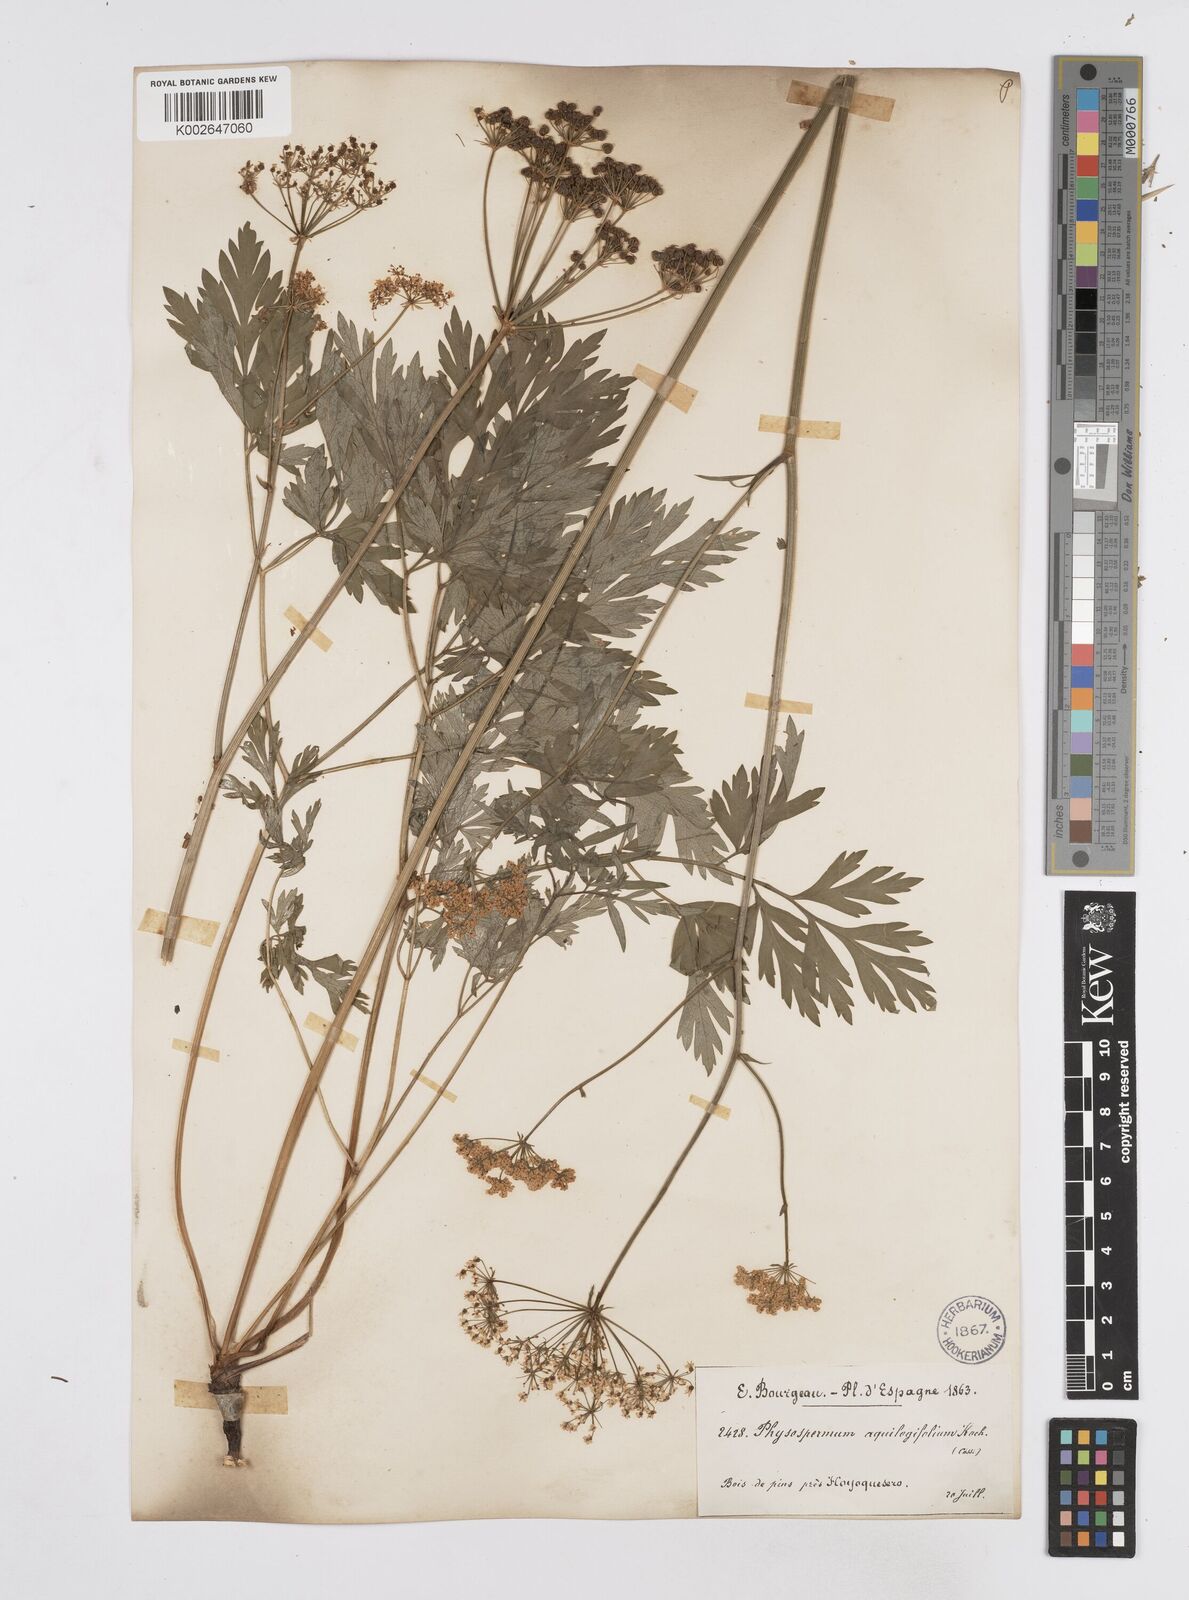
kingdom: Plantae
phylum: Tracheophyta
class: Magnoliopsida
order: Apiales
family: Apiaceae
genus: Physospermum
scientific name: Physospermum cornubiense
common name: Bladderseed
